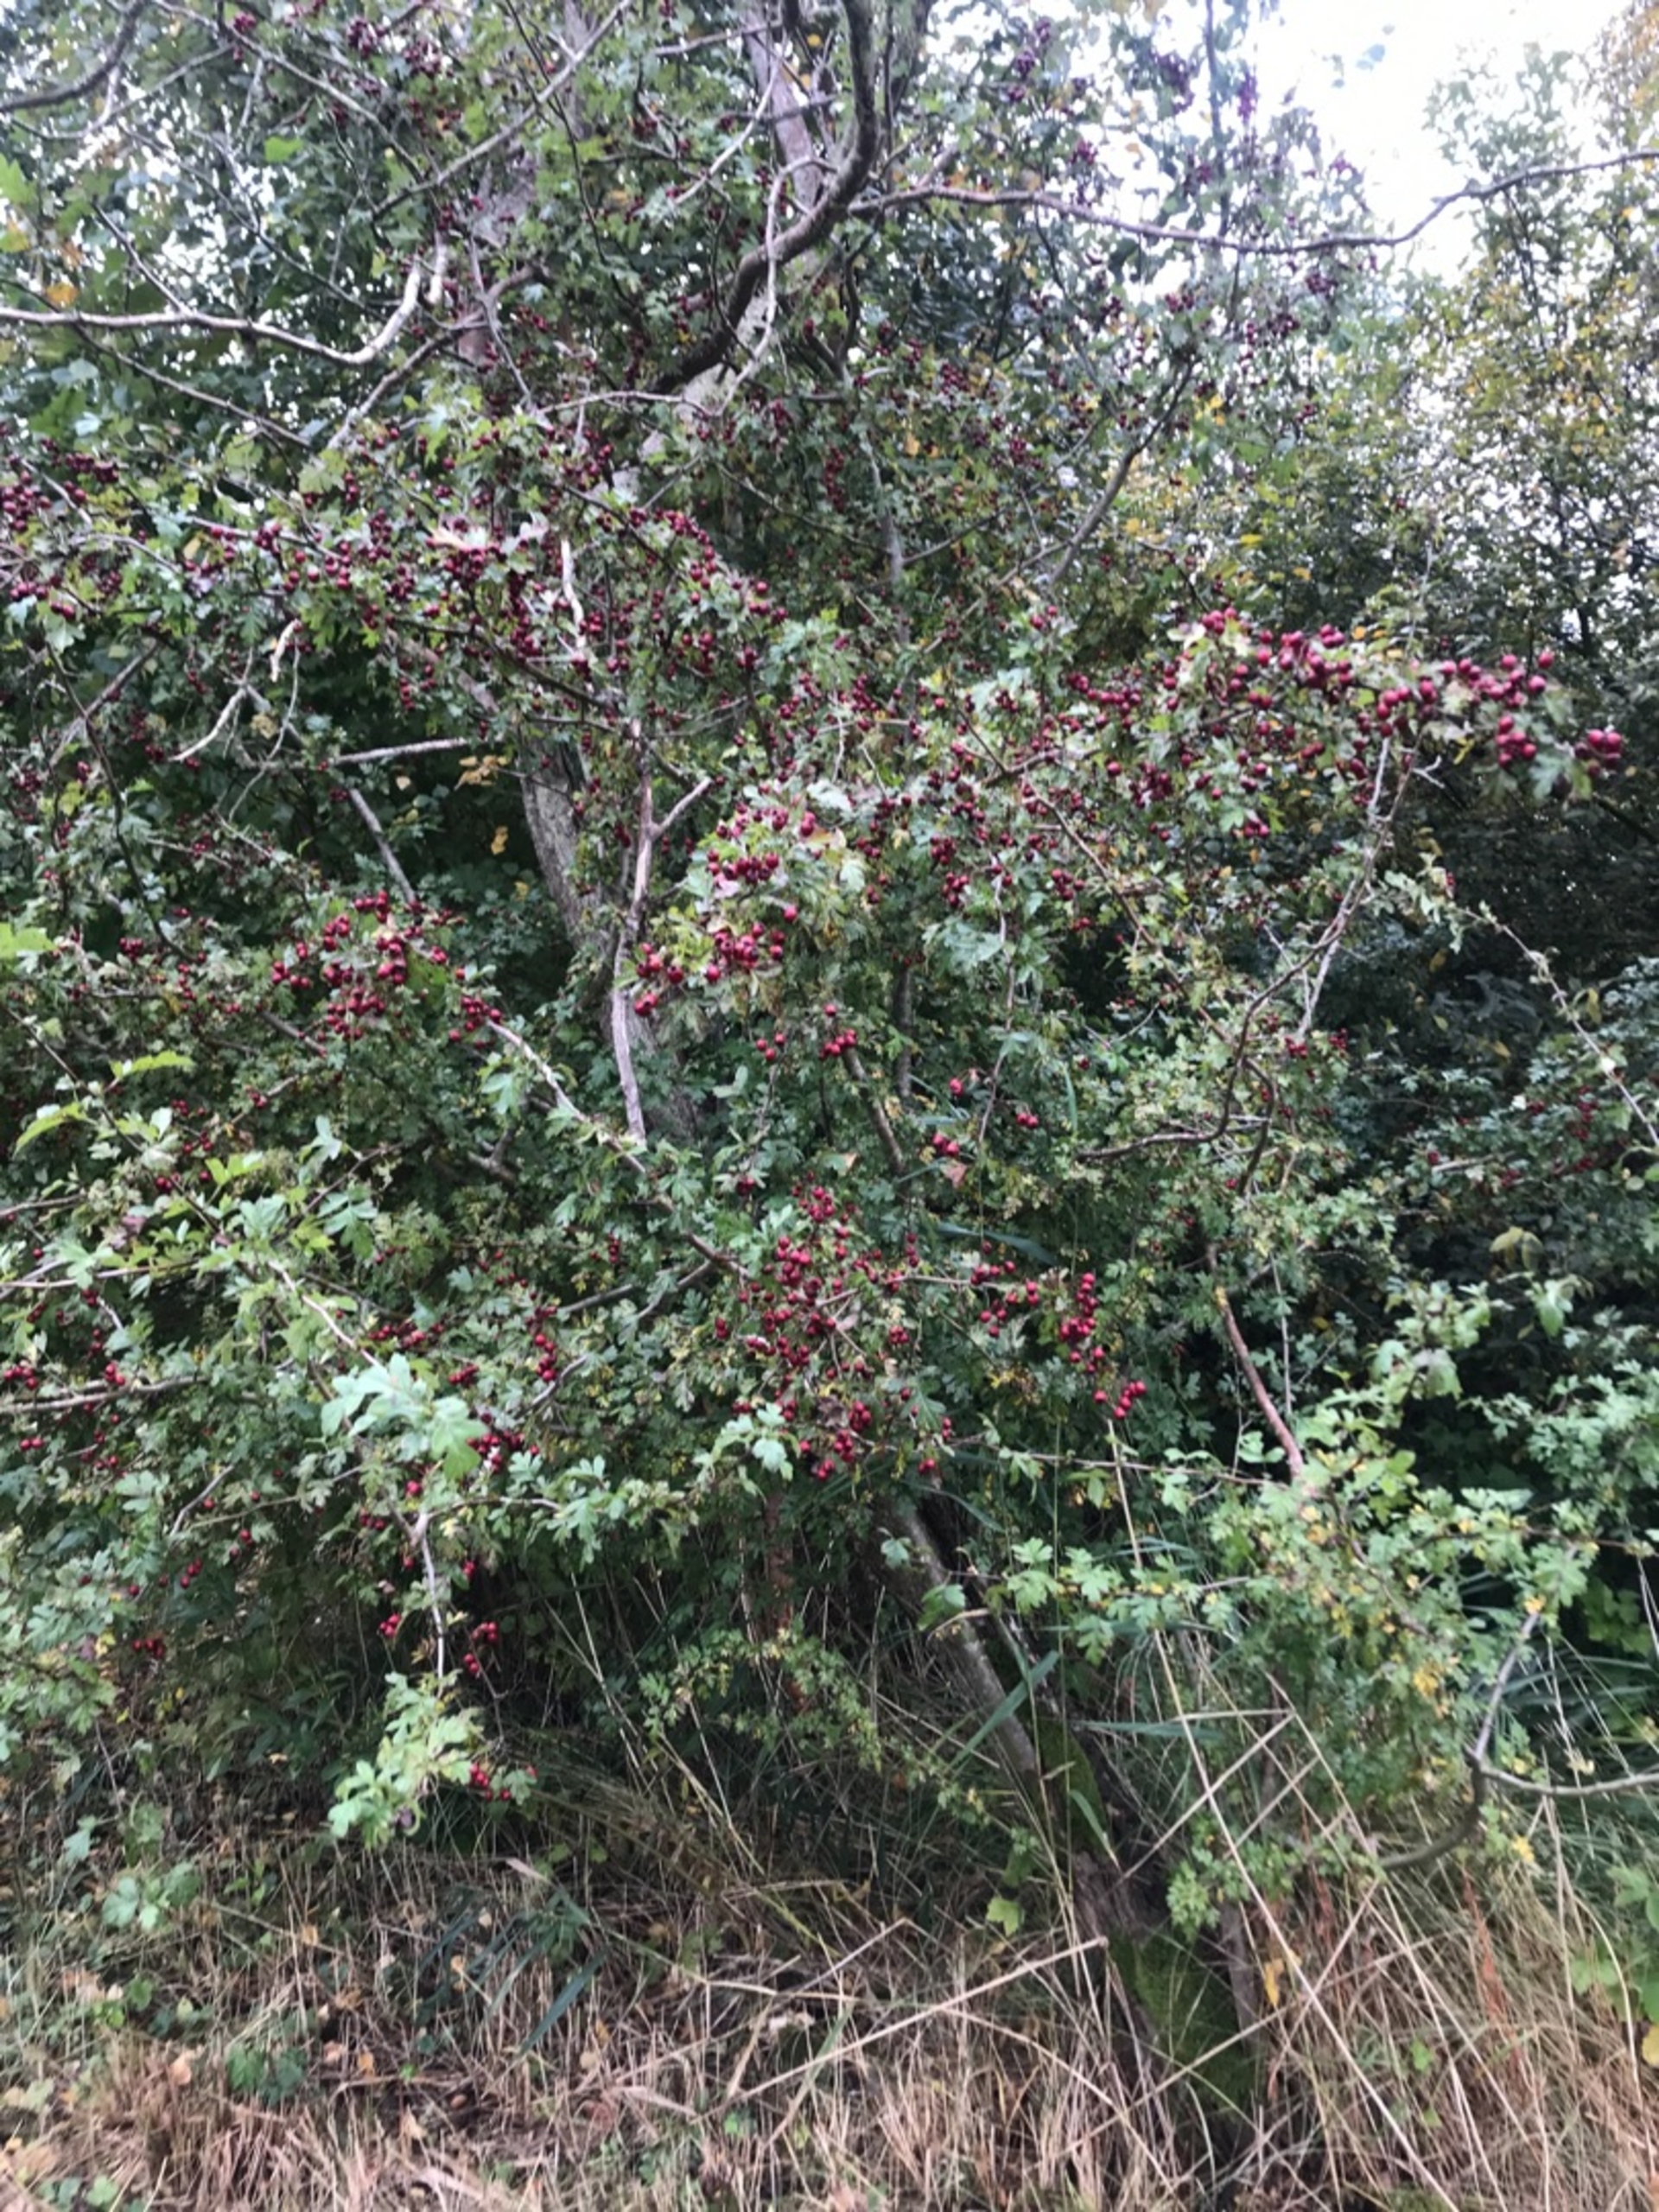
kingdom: Plantae
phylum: Tracheophyta
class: Magnoliopsida
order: Rosales
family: Rosaceae
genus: Crataegus
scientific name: Crataegus monogyna
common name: Engriflet hvidtjørn
